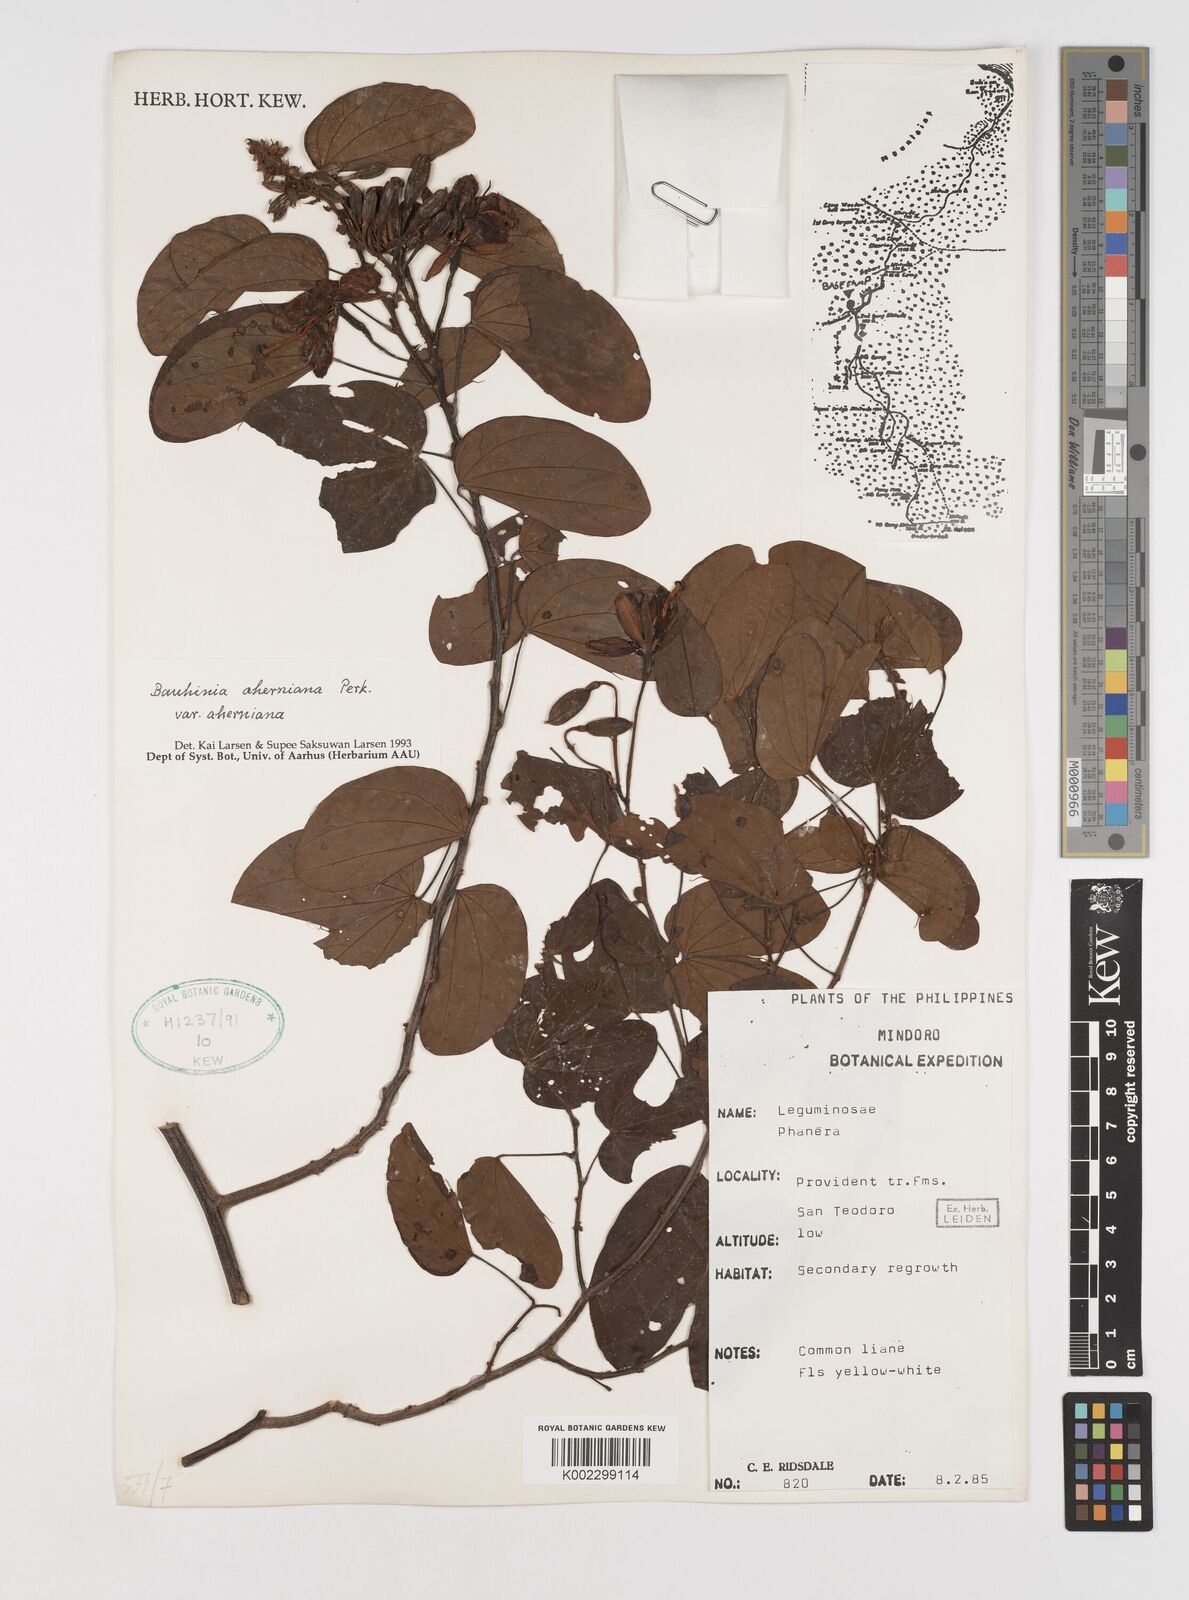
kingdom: Plantae
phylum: Tracheophyta
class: Magnoliopsida
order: Fabales
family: Fabaceae
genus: Phanera
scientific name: Phanera aherniana
